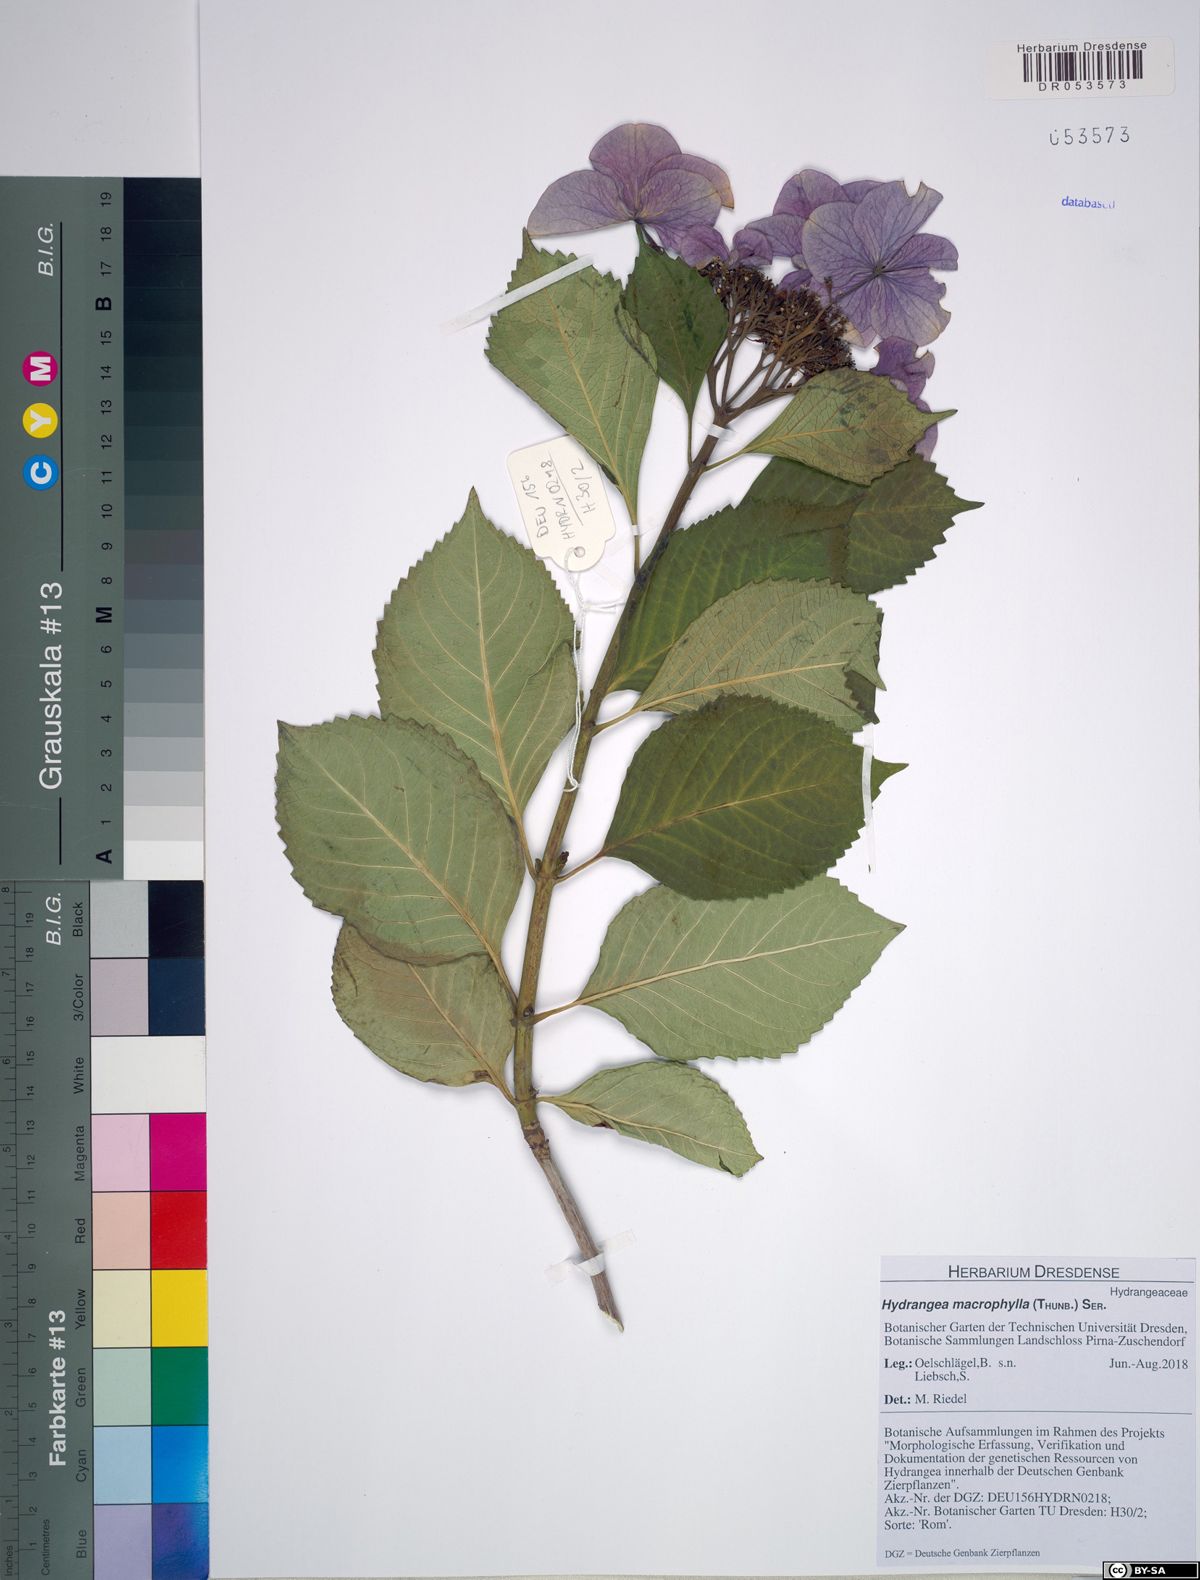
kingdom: Plantae
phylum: Tracheophyta
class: Magnoliopsida
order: Cornales
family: Hydrangeaceae
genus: Hydrangea
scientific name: Hydrangea macrophylla
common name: Hydrangea
